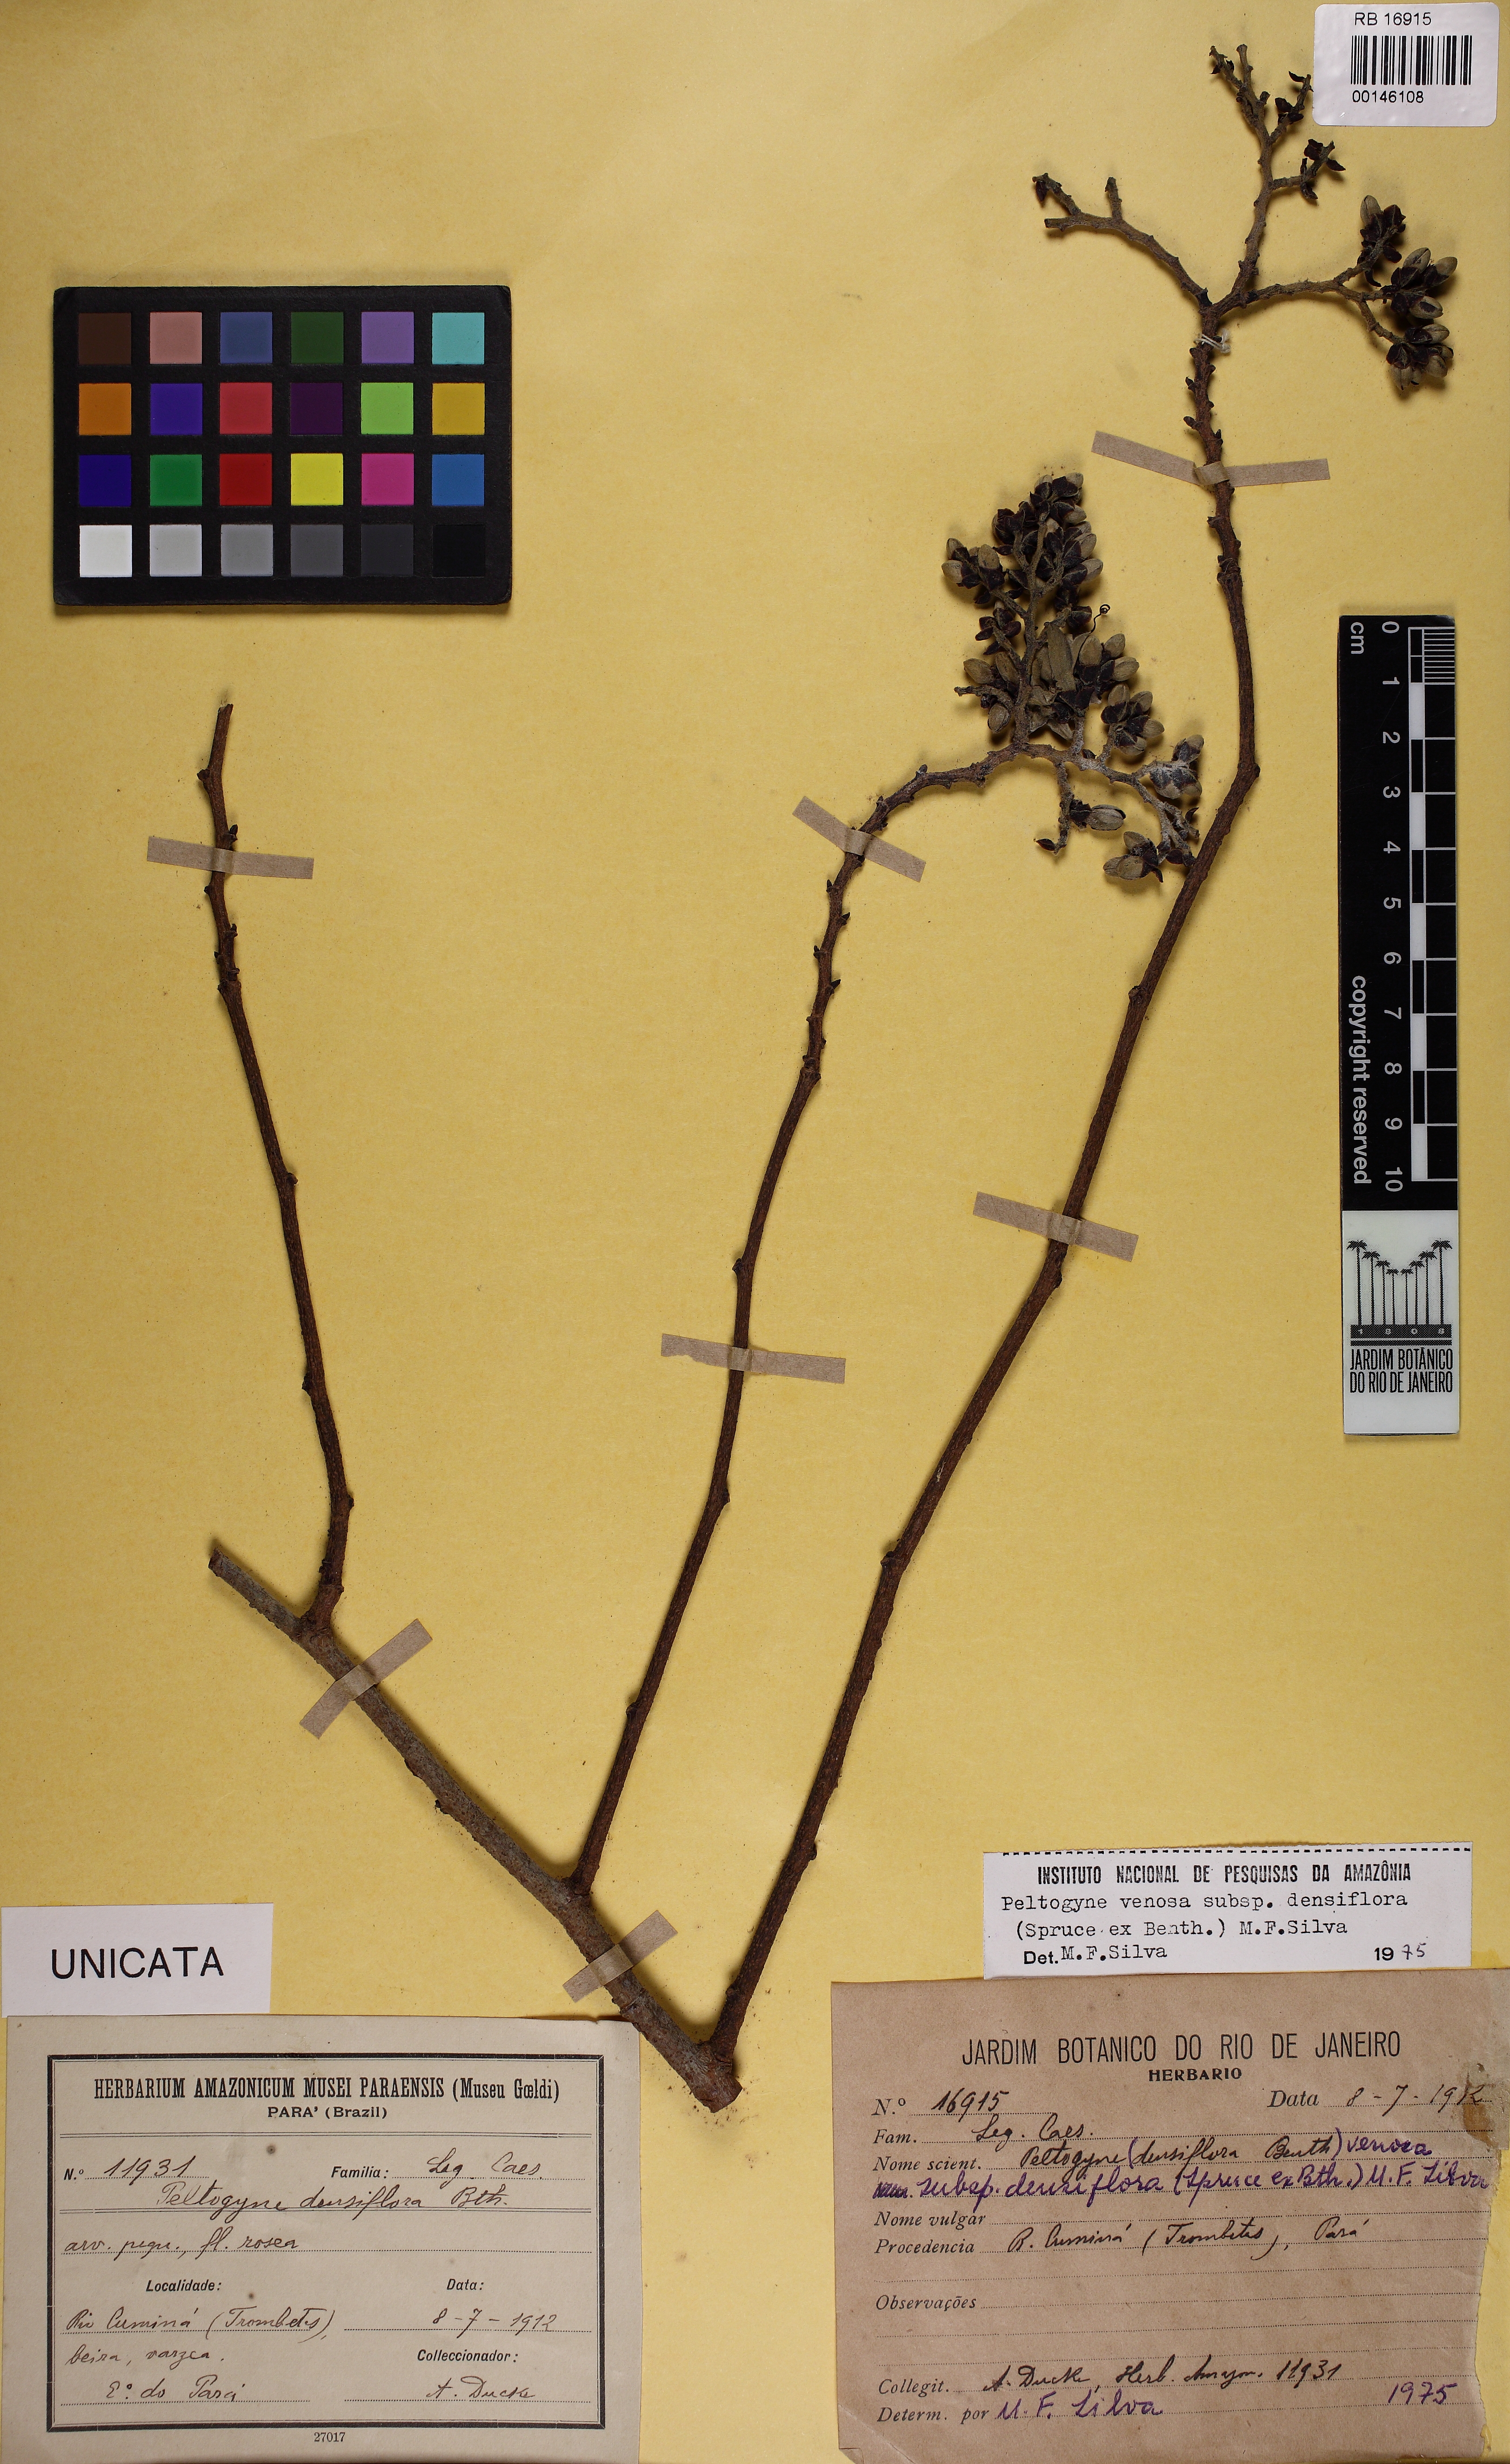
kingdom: Plantae
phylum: Tracheophyta
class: Magnoliopsida
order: Fabales
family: Fabaceae
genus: Peltogyne
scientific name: Peltogyne venosa
